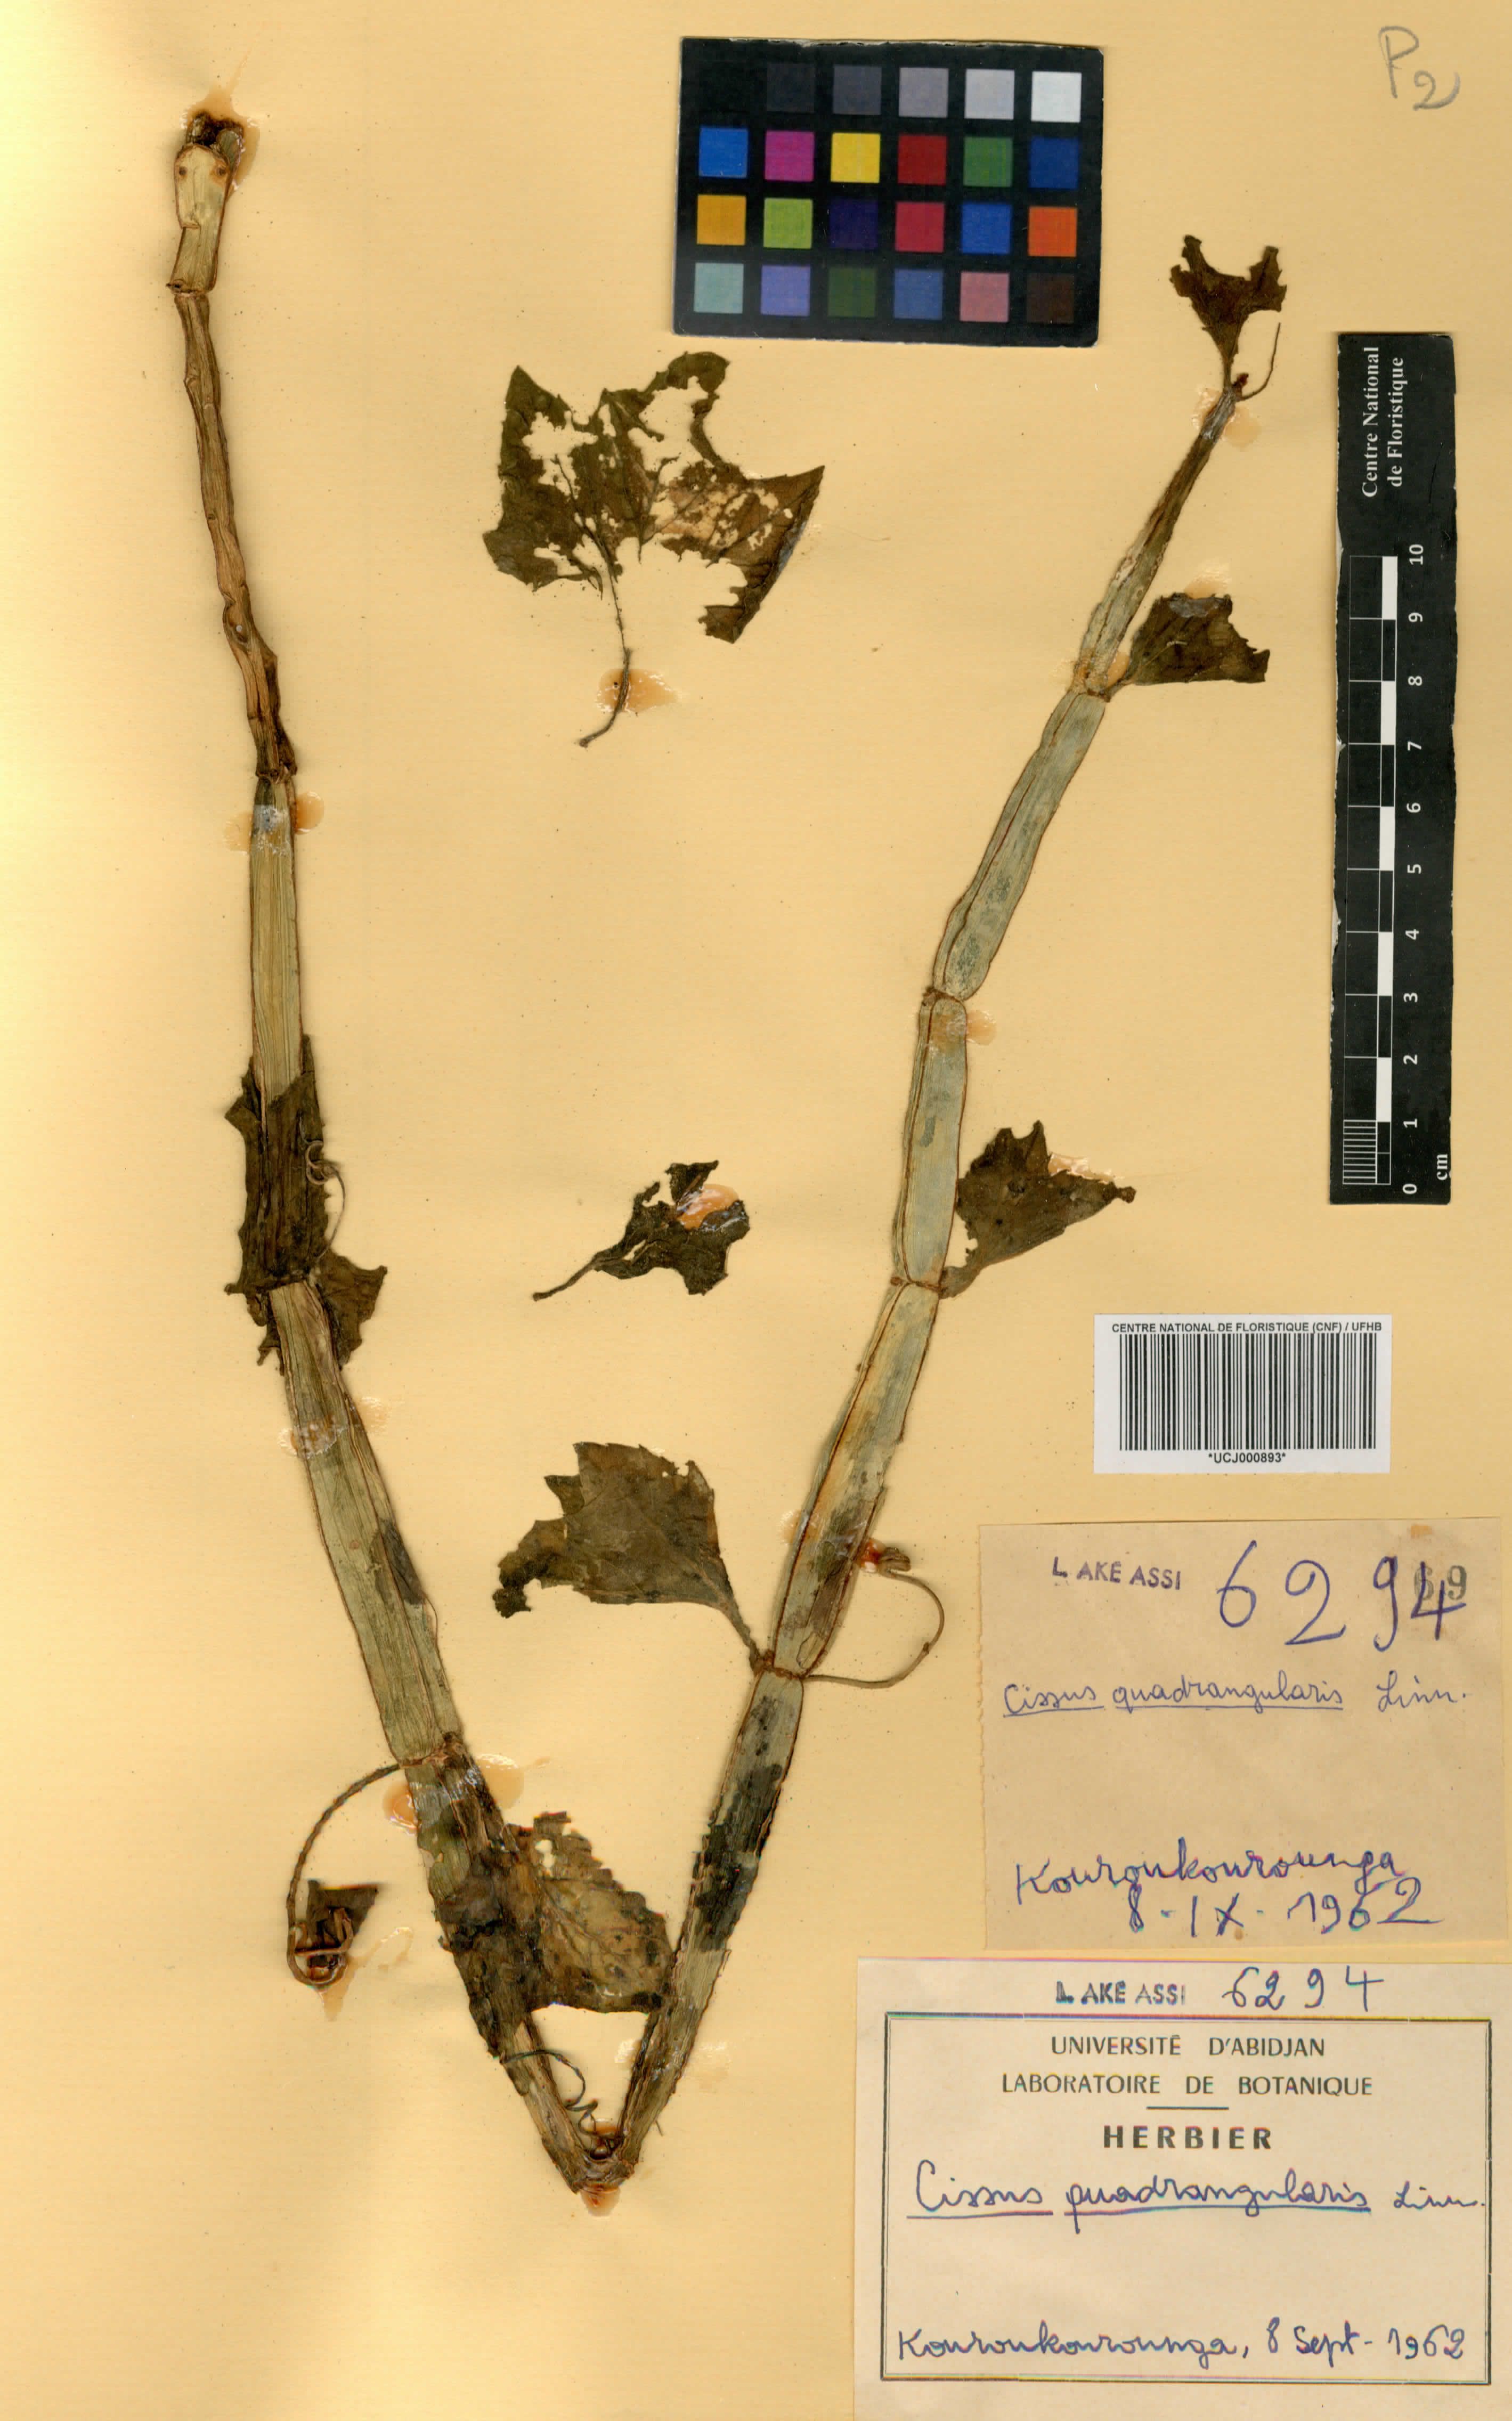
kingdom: Plantae
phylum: Tracheophyta
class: Magnoliopsida
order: Vitales
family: Vitaceae
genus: Cissus
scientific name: Cissus quadrangularis
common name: Veldt-grape
